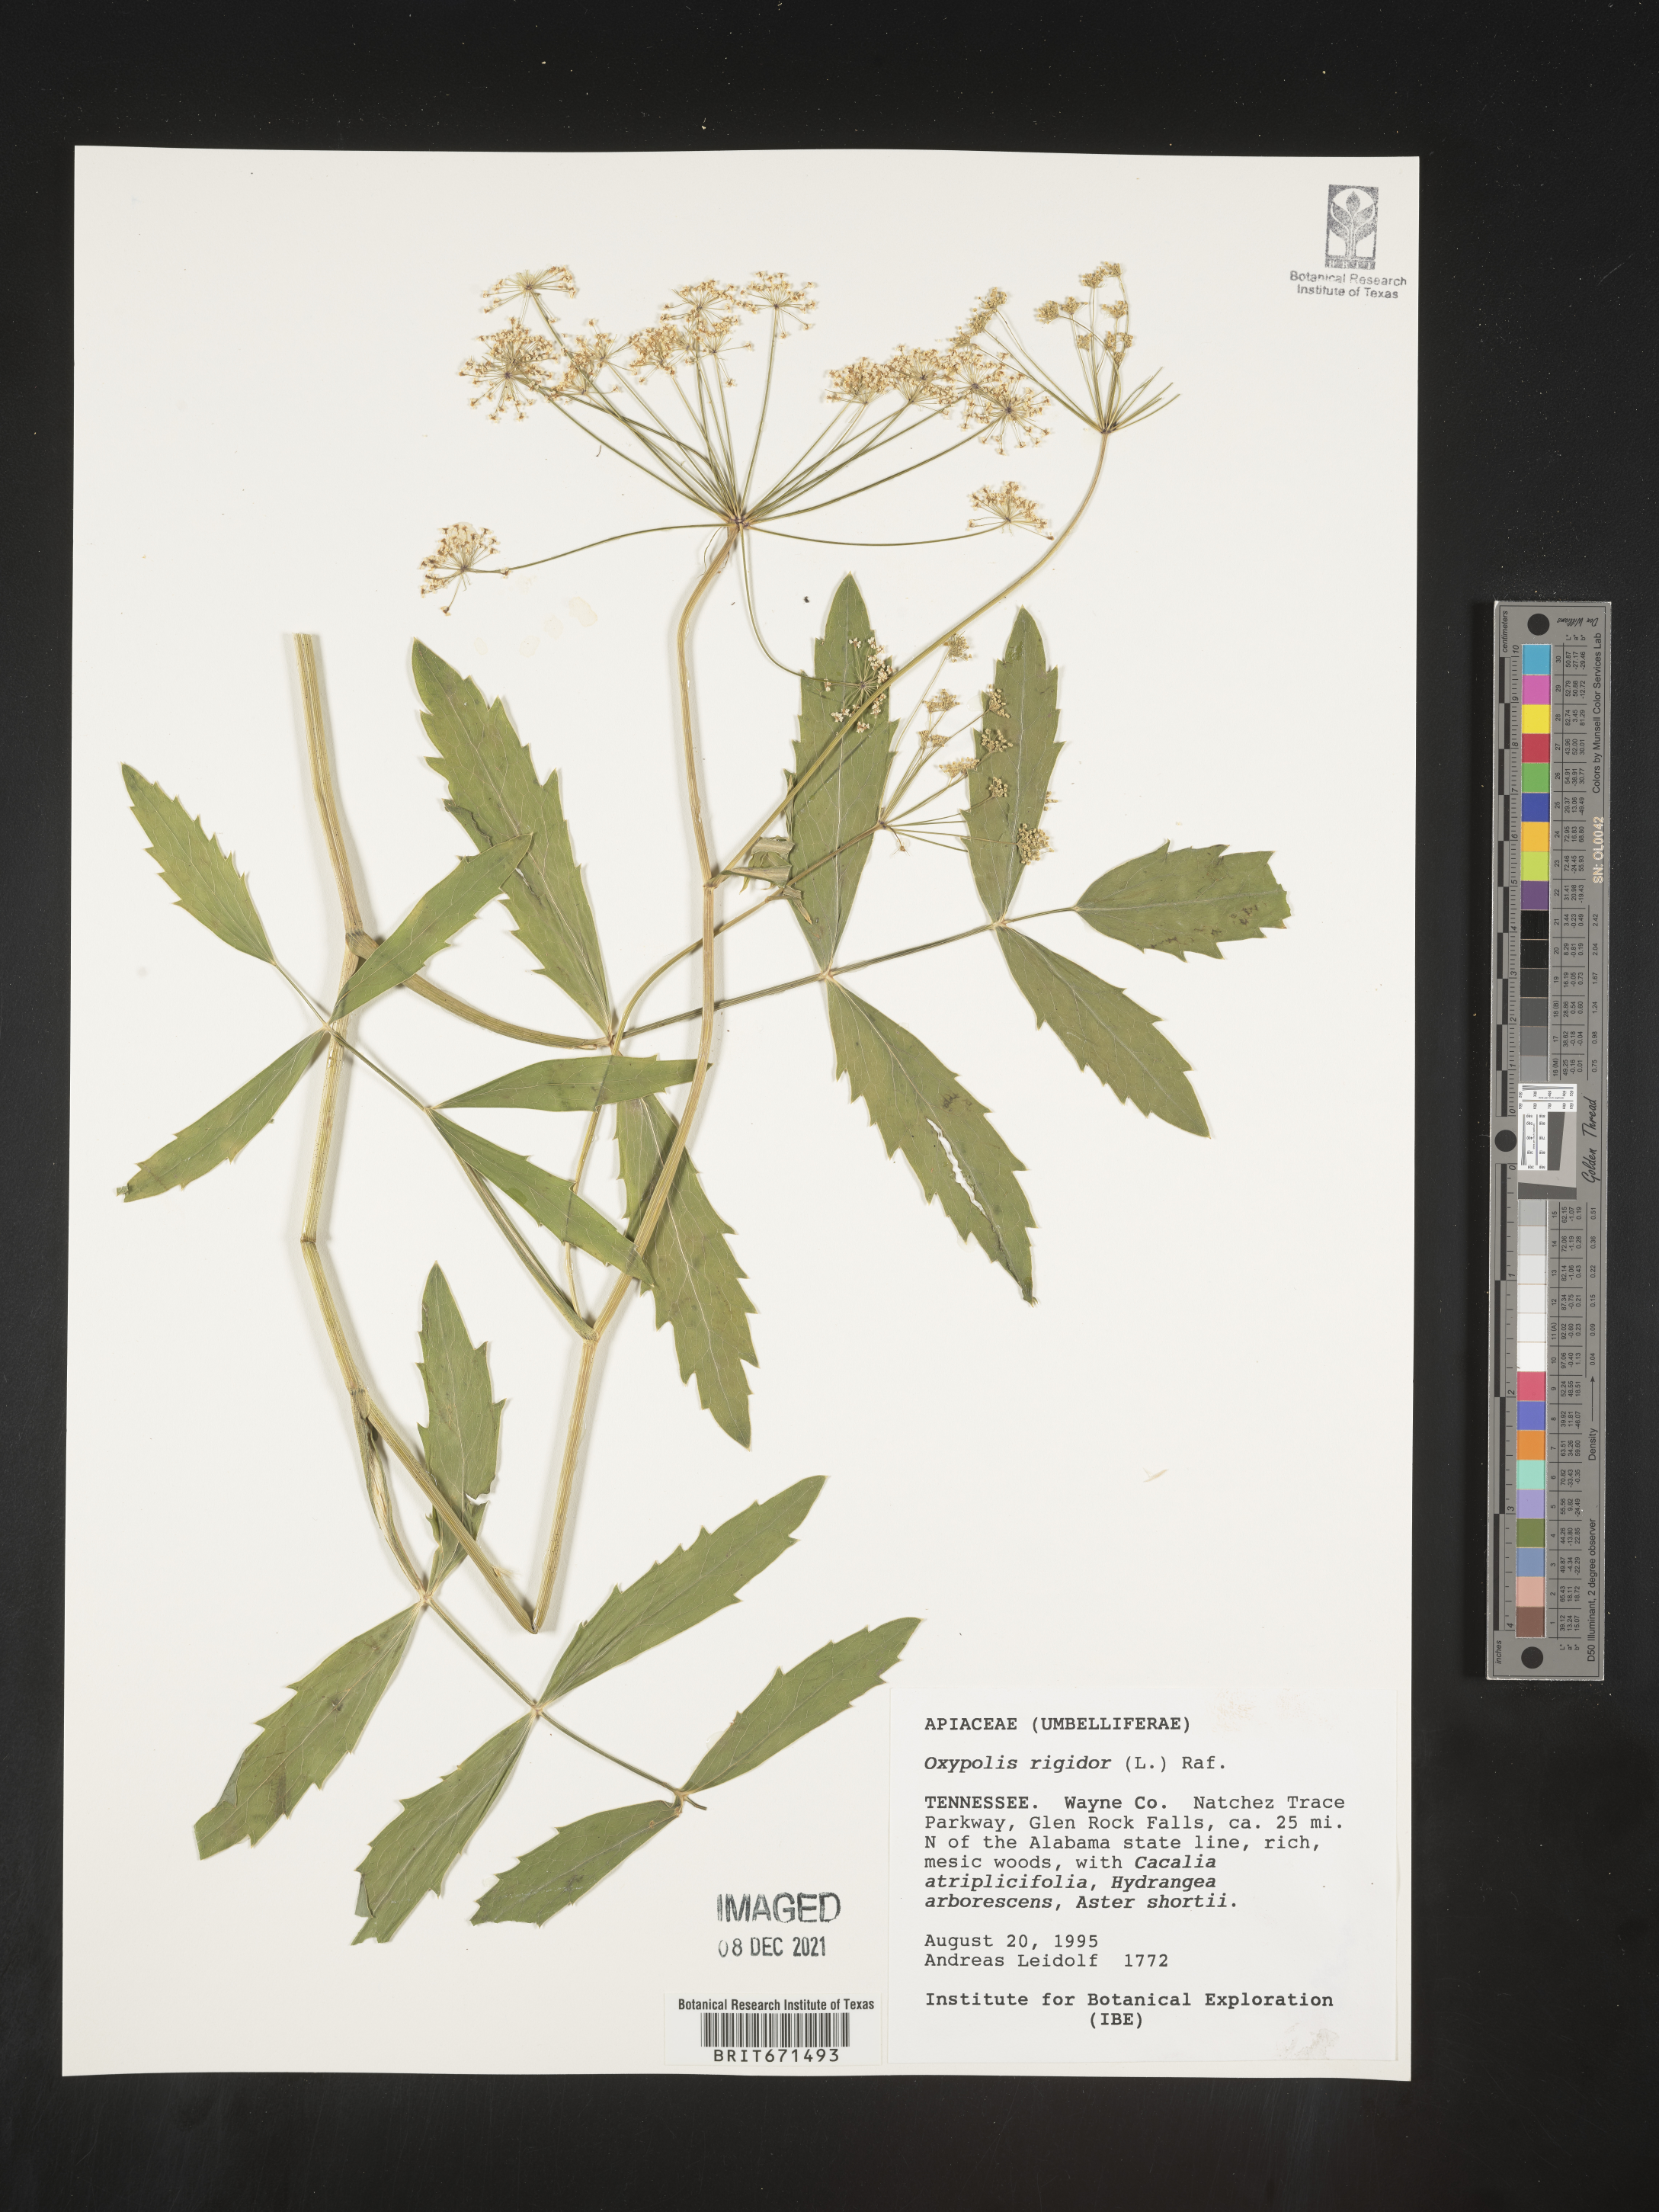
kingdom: Plantae
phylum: Tracheophyta
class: Magnoliopsida
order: Apiales
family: Apiaceae
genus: Oxypolis
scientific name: Oxypolis rigidior
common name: Cowbane
